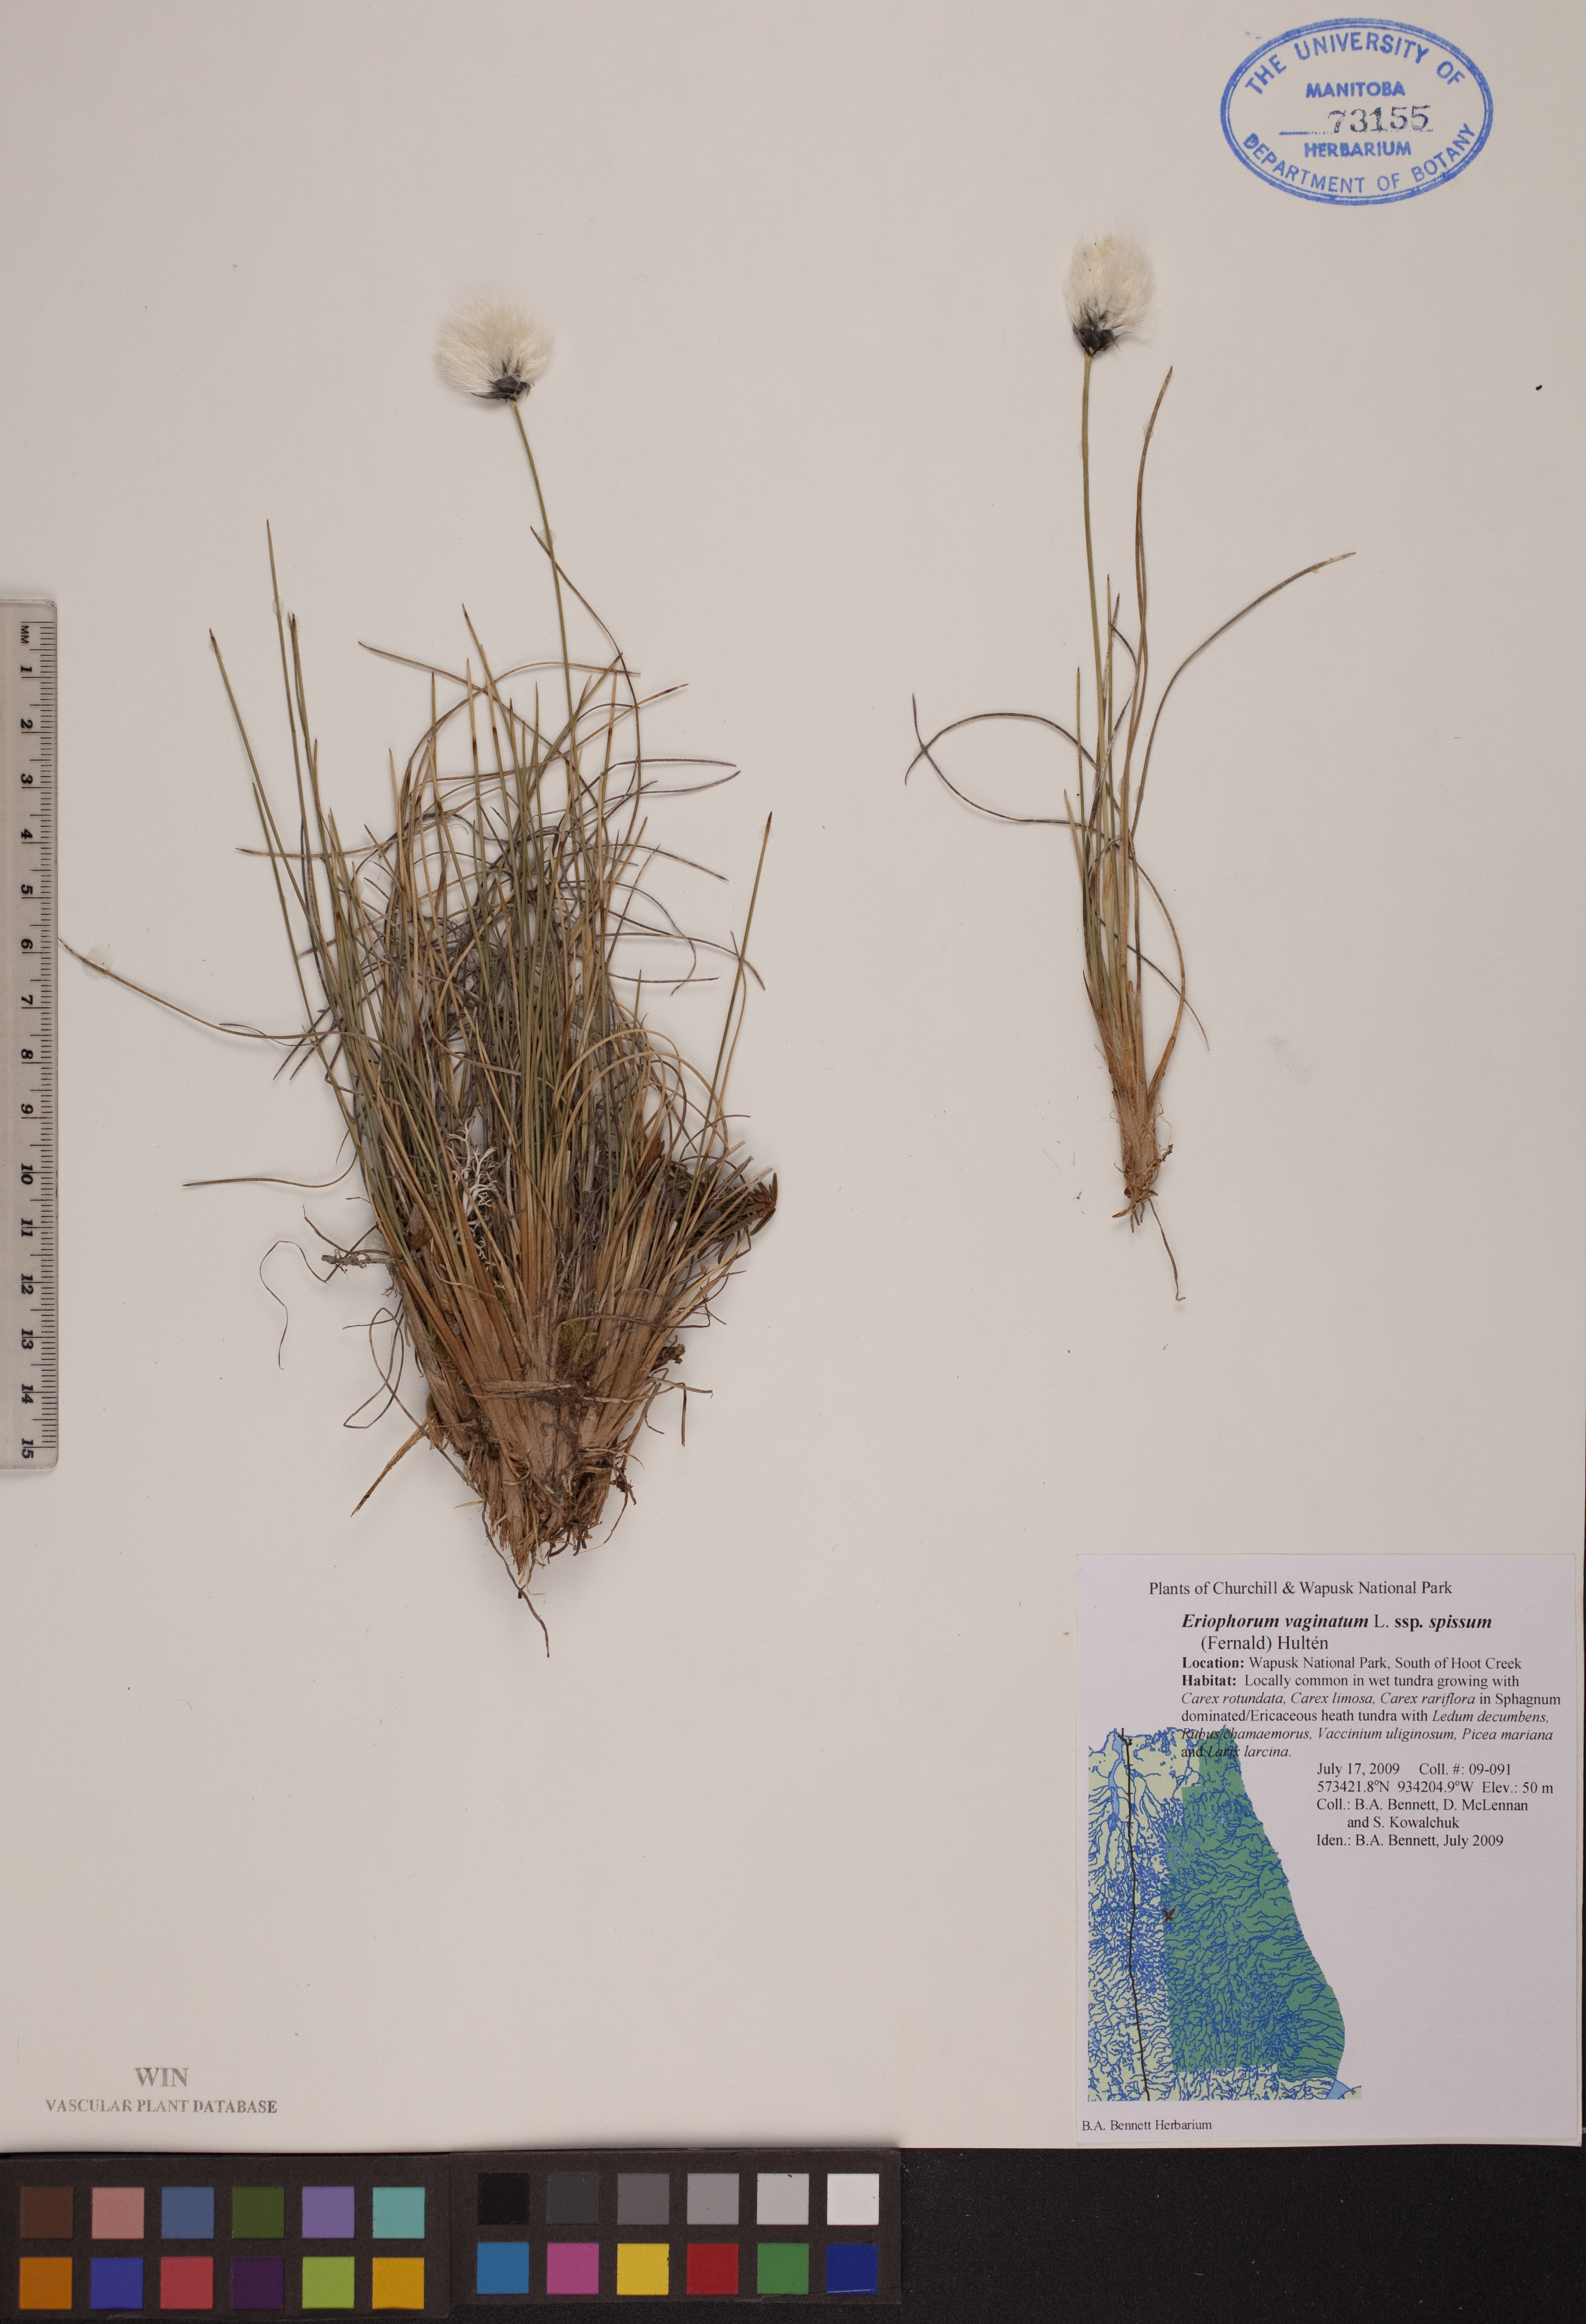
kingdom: Plantae
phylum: Tracheophyta
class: Liliopsida
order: Poales
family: Cyperaceae
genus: Eriophorum
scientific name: Eriophorum vaginatum
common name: Hare's-tail cottongrass
